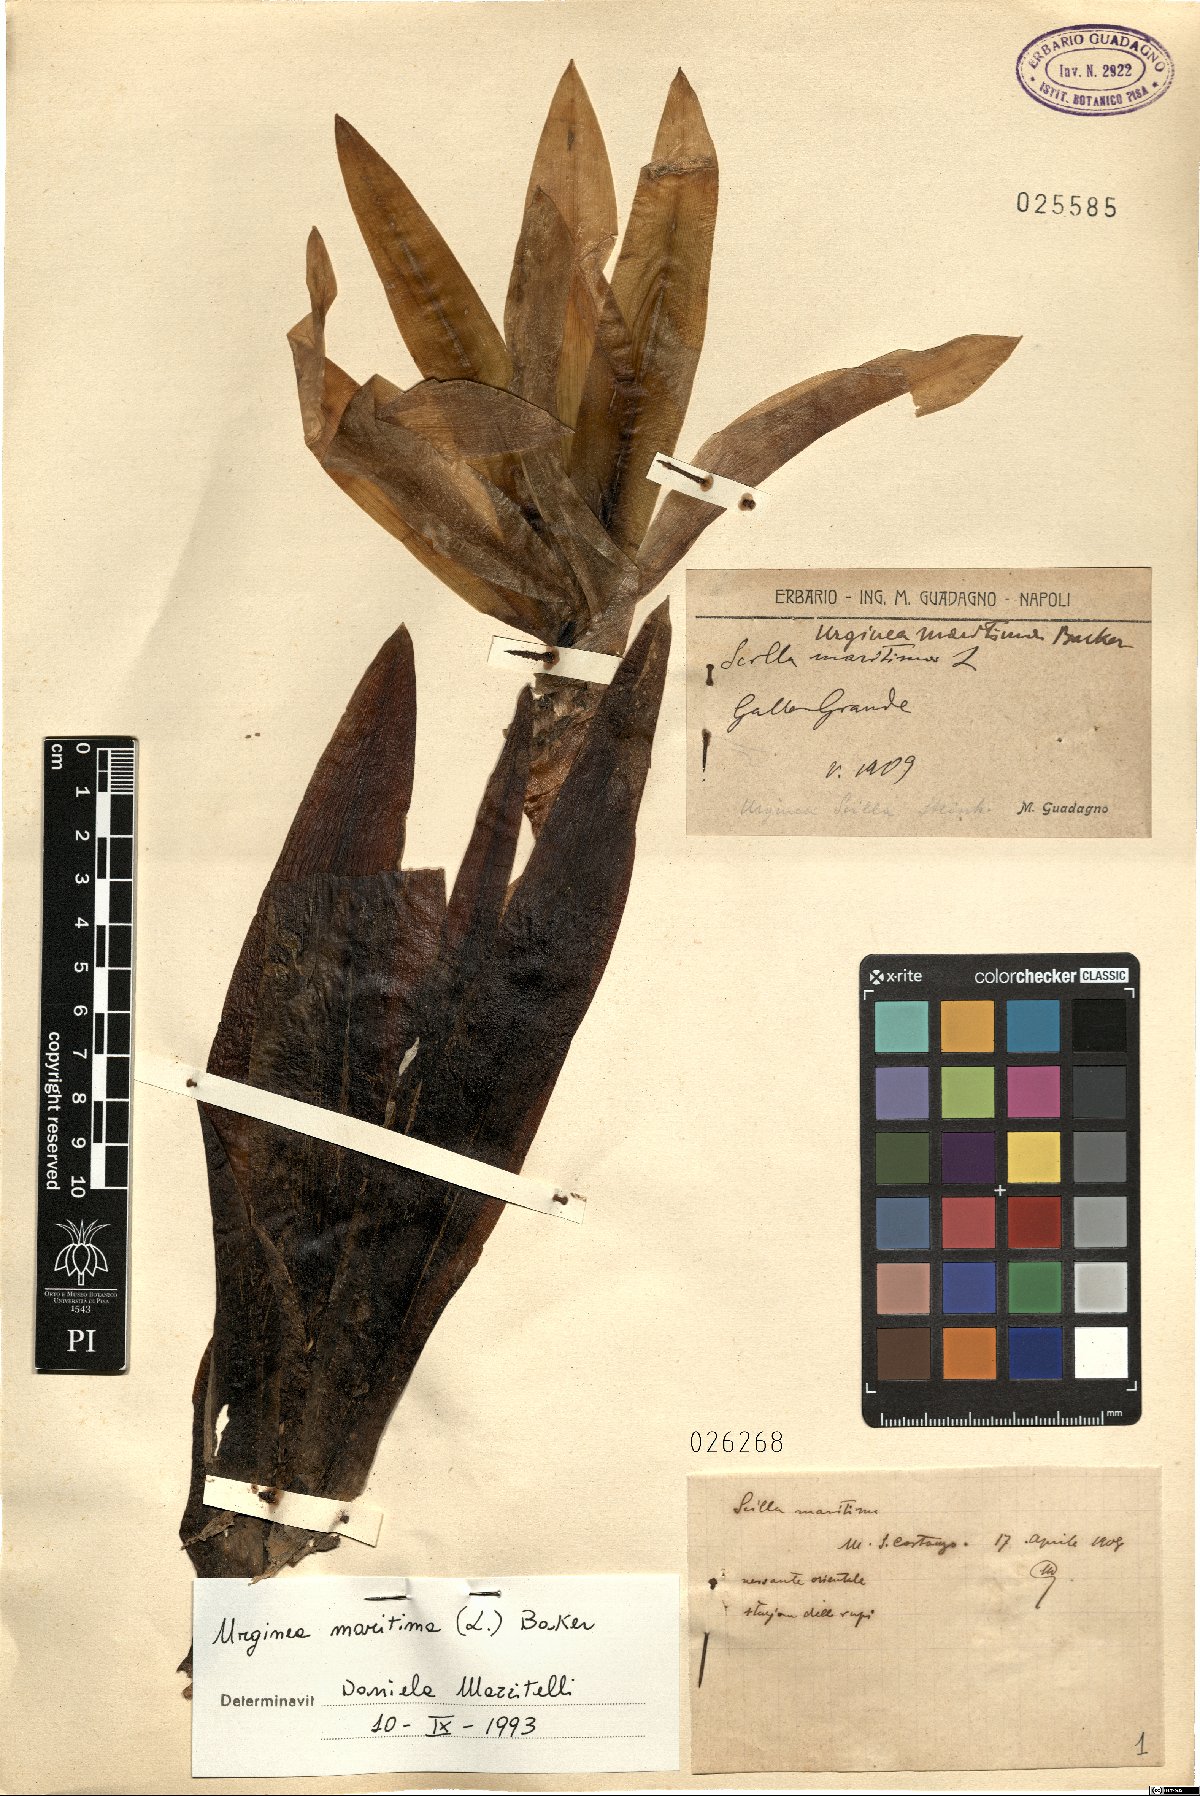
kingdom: Plantae
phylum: Tracheophyta
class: Liliopsida
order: Asparagales
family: Asparagaceae
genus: Drimia
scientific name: Drimia maritima
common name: Maritime squill
